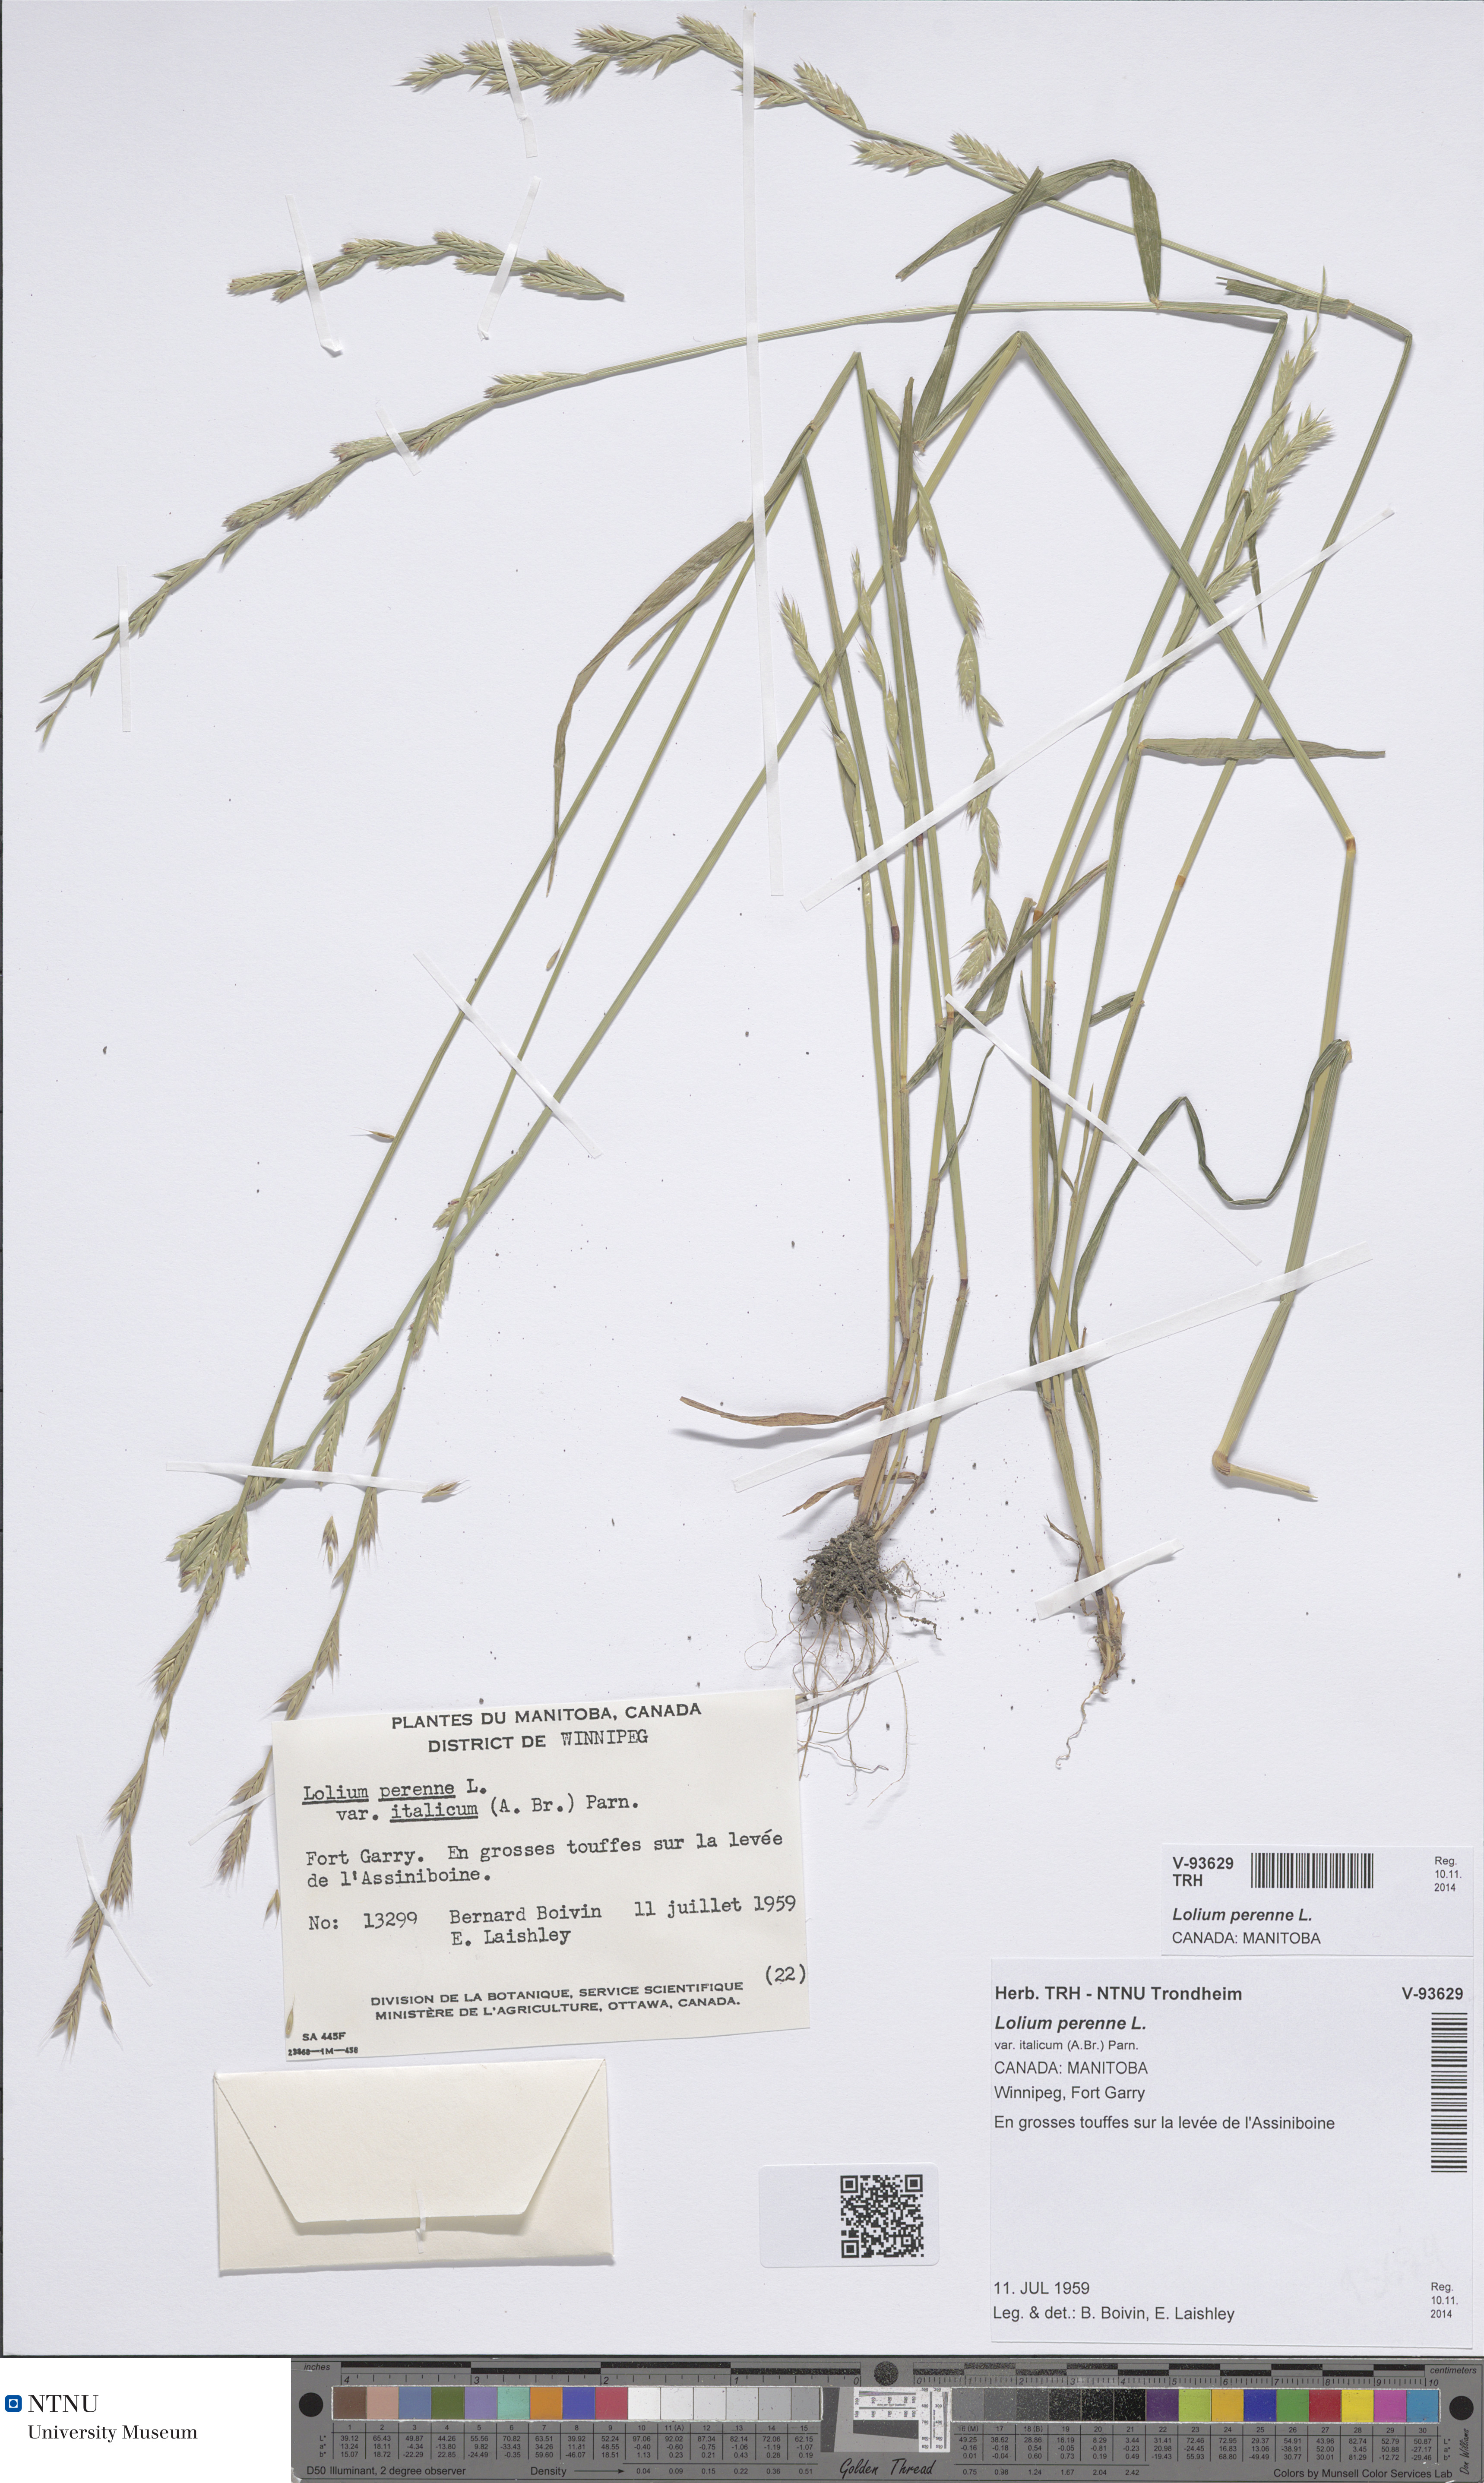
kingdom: Plantae
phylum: Tracheophyta
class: Liliopsida
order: Poales
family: Poaceae
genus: Lolium
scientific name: Lolium perenne
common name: Perennial ryegrass
